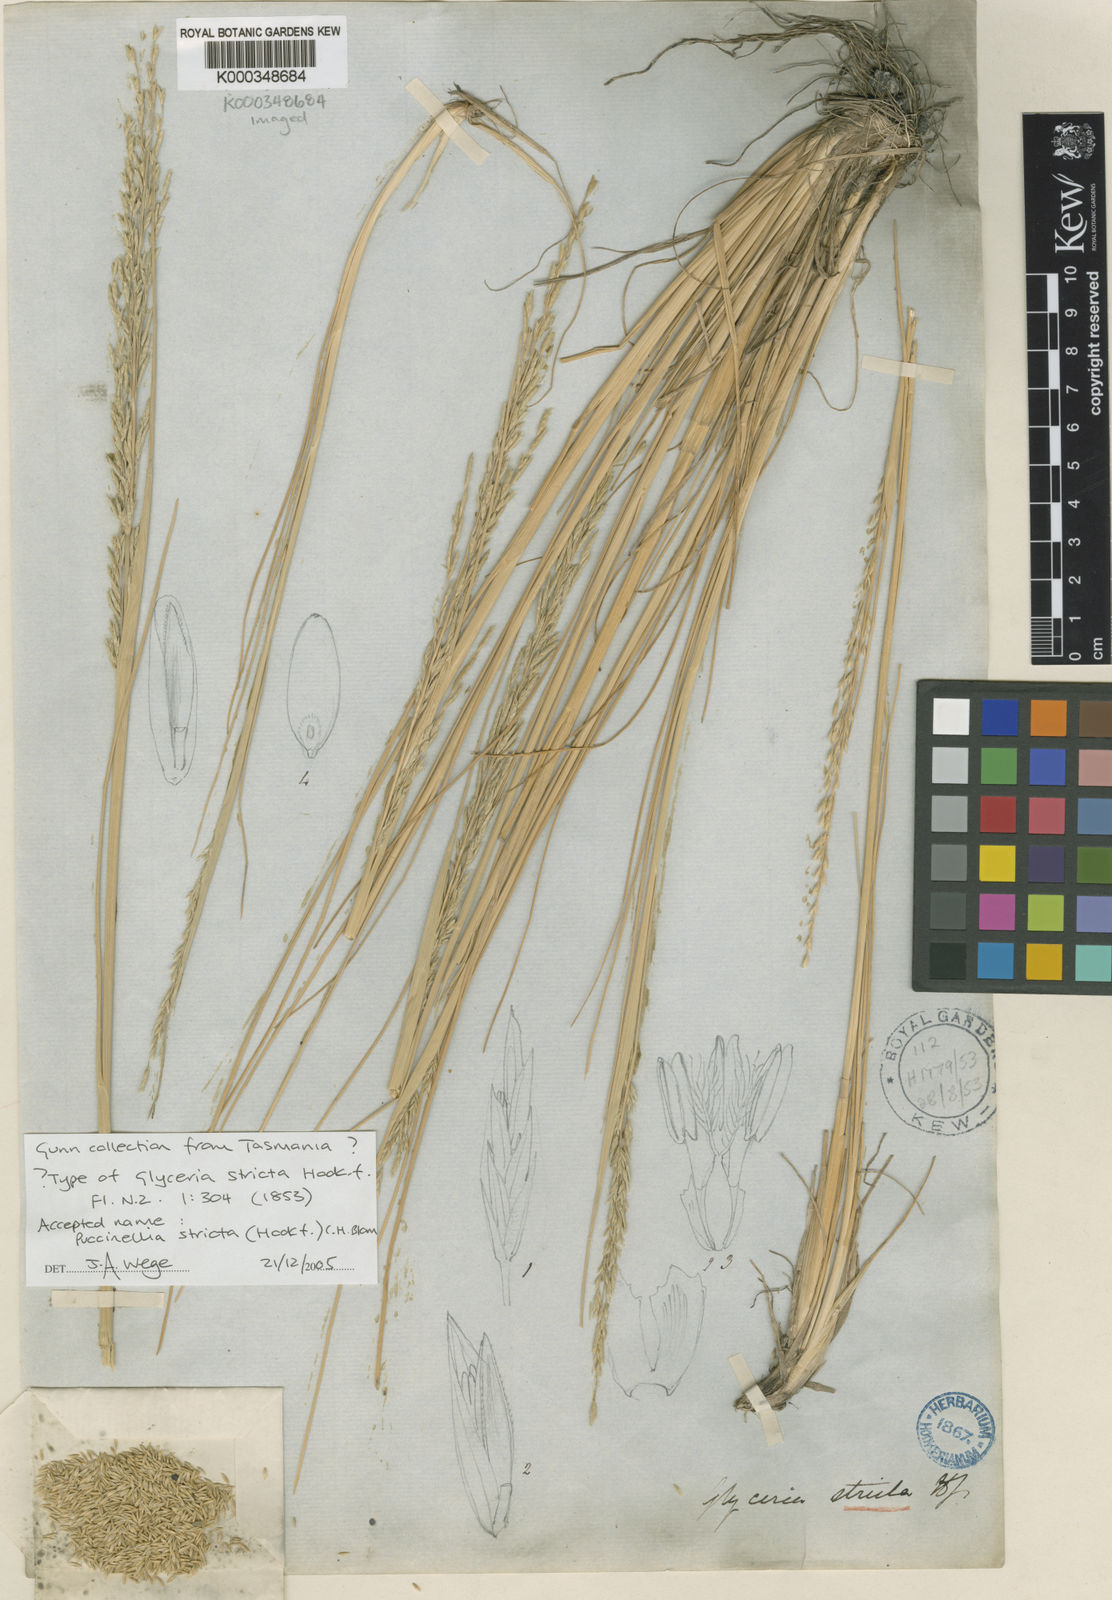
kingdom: Plantae
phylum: Tracheophyta
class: Liliopsida
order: Poales
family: Poaceae
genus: Puccinellia
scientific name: Puccinellia stricta
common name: Australian saltmarsh grass
